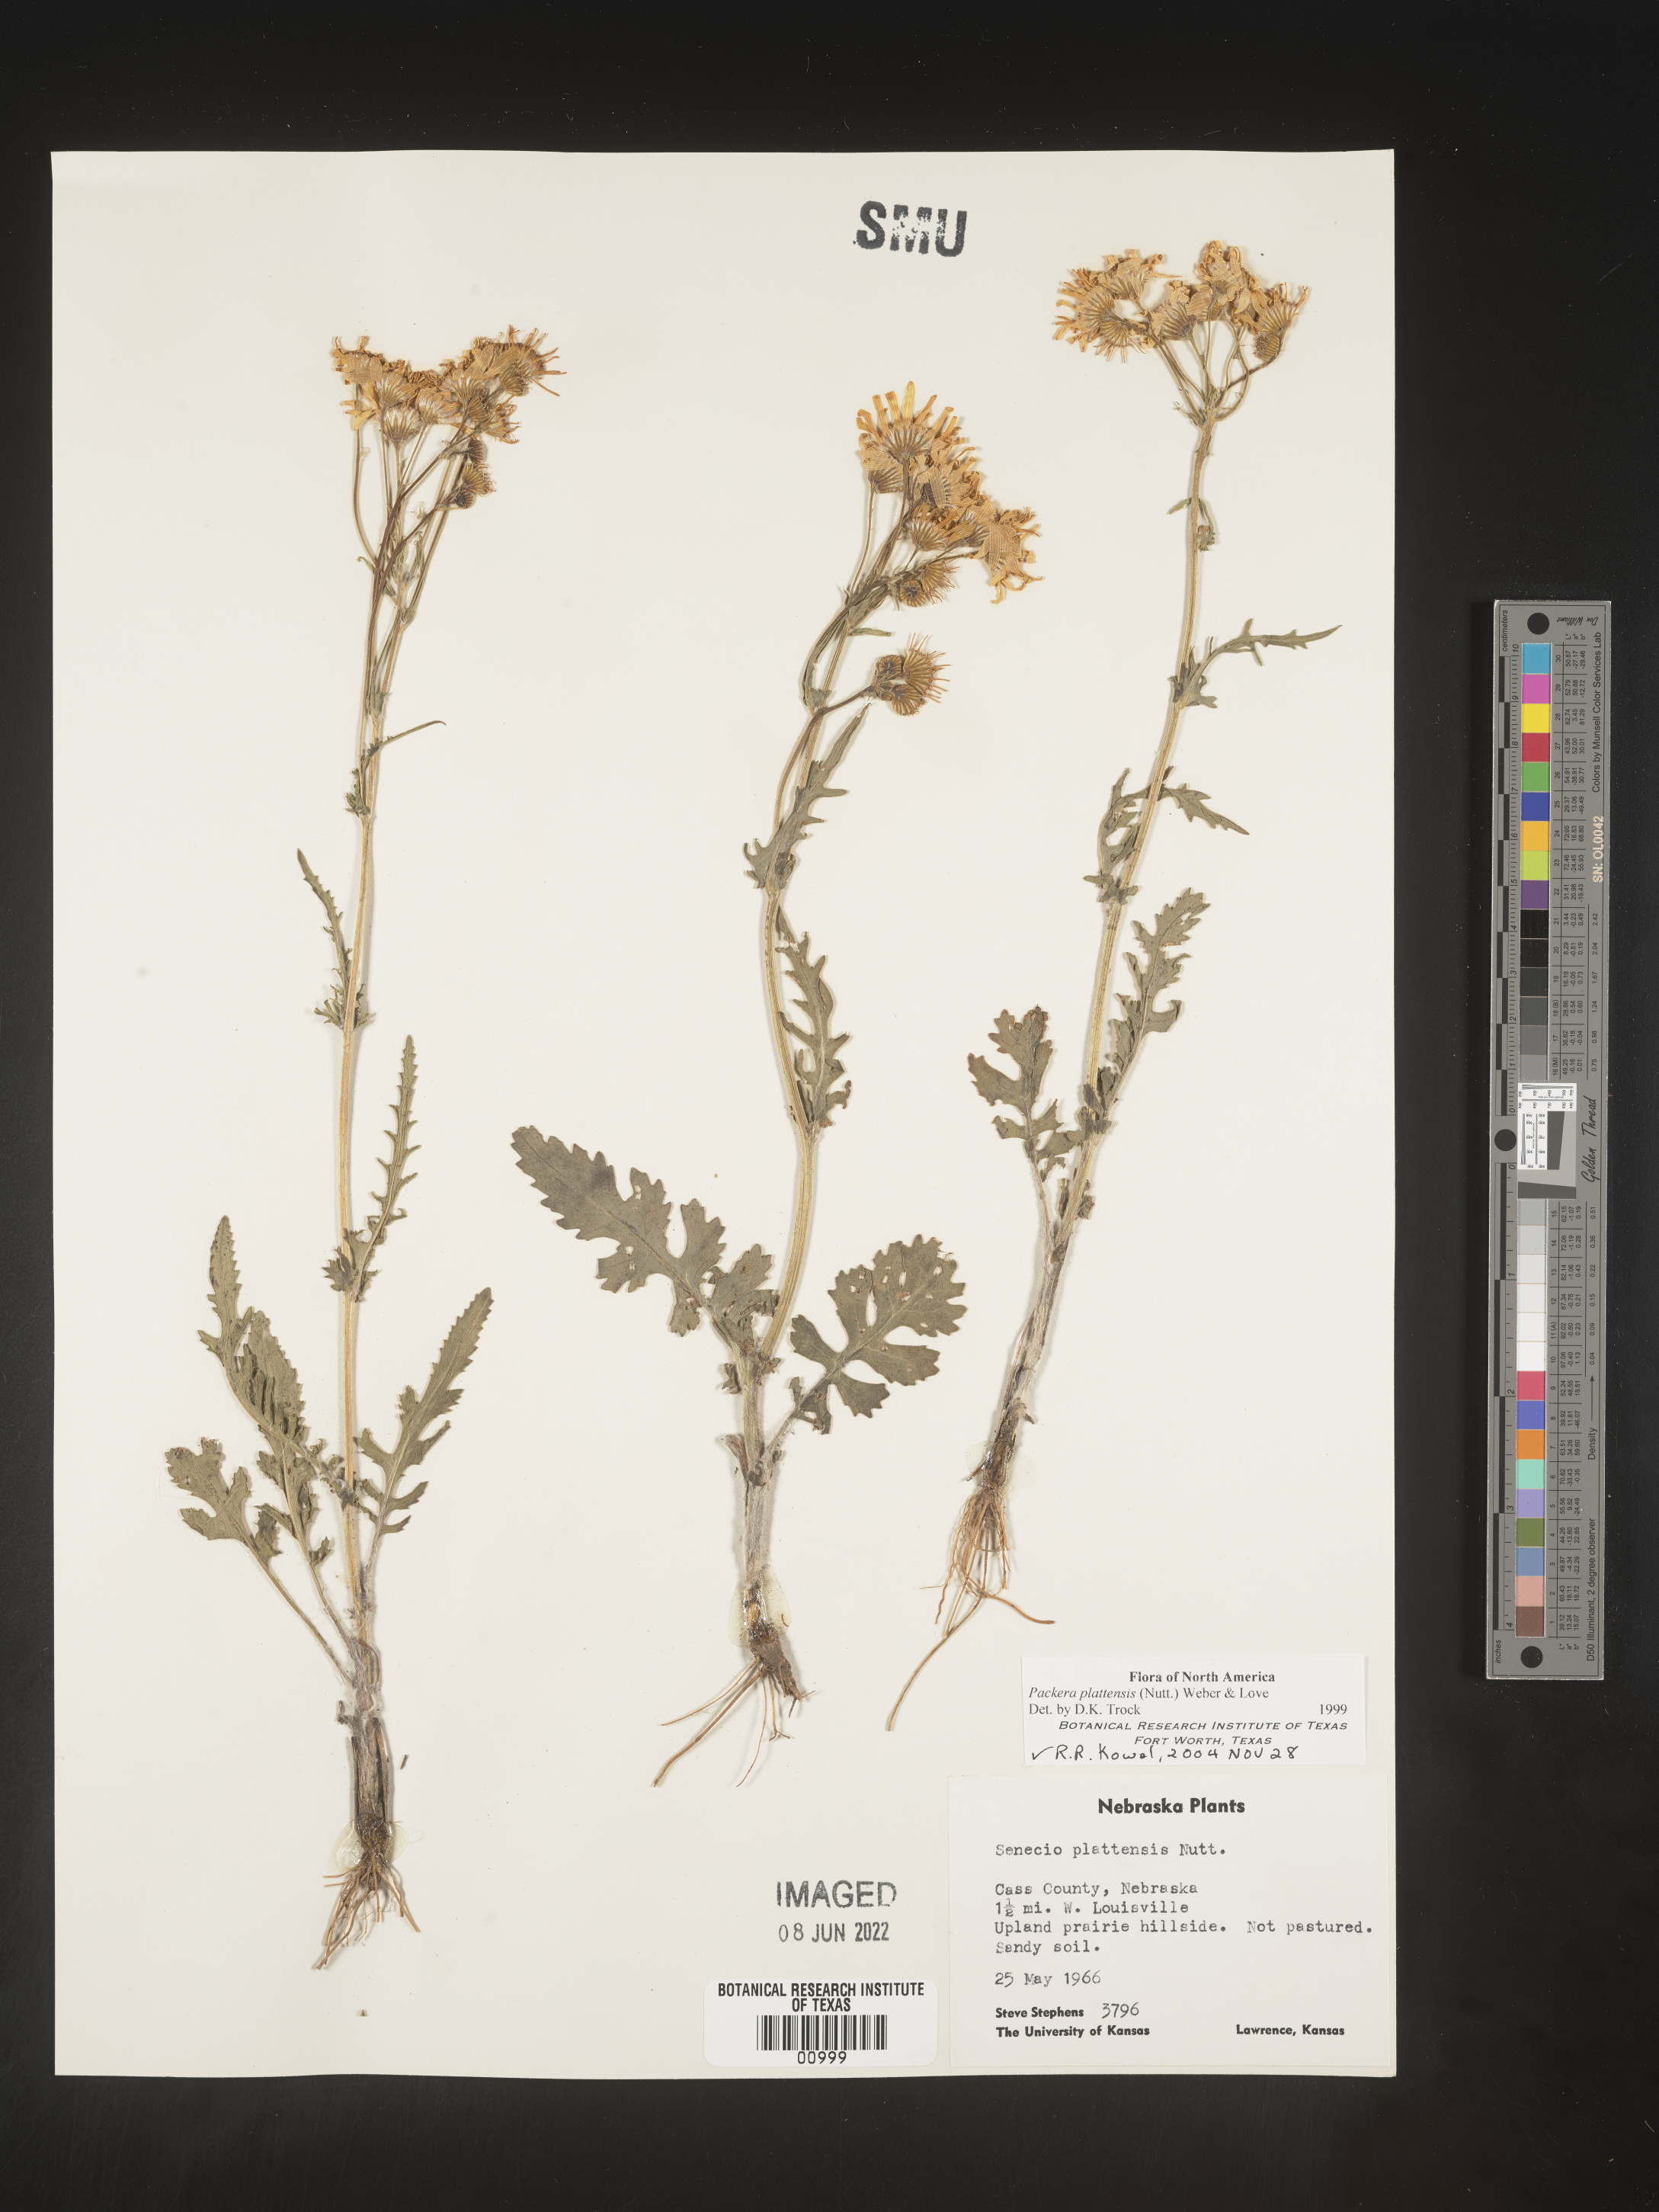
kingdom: Plantae
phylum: Tracheophyta
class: Magnoliopsida
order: Asterales
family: Asteraceae
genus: Packera
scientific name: Packera plattensis
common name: Prairie groundsel
